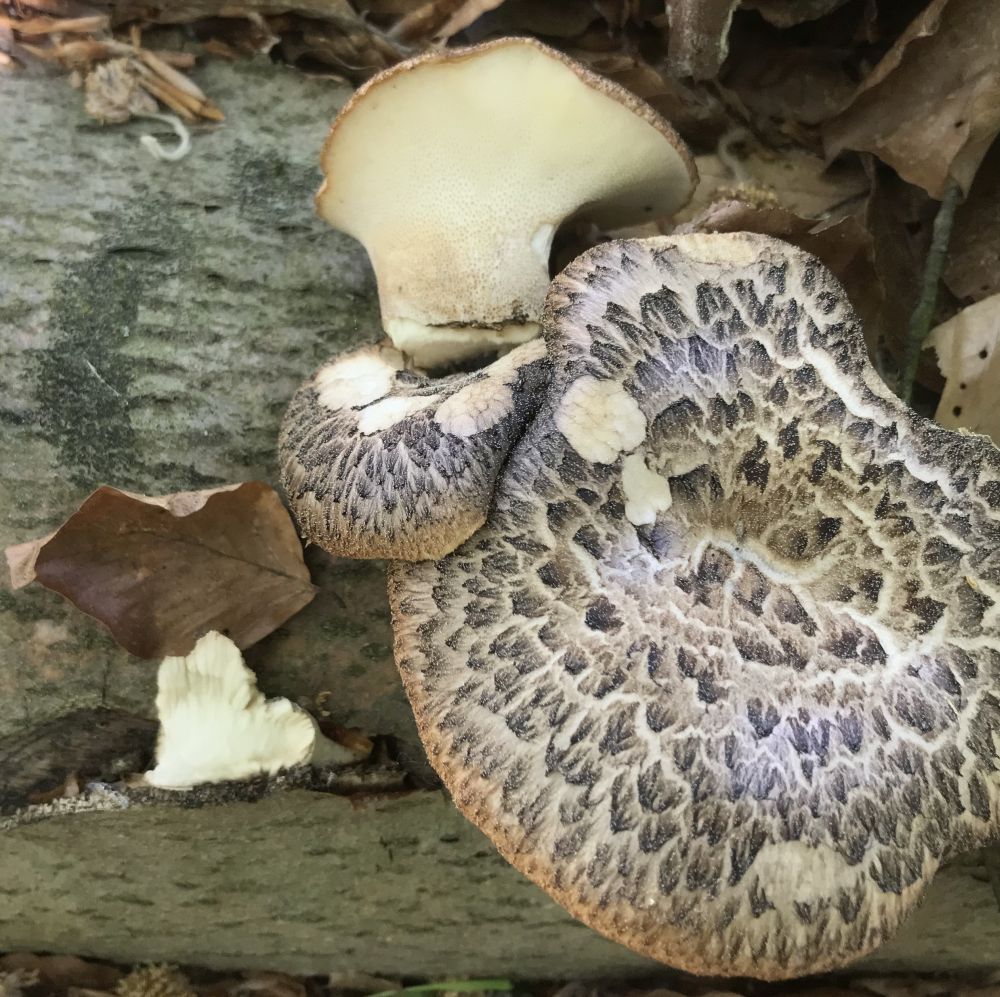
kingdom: Fungi
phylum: Basidiomycota
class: Agaricomycetes
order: Polyporales
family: Polyporaceae
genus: Cerioporus
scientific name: Cerioporus squamosus
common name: skællet stilkporesvamp
